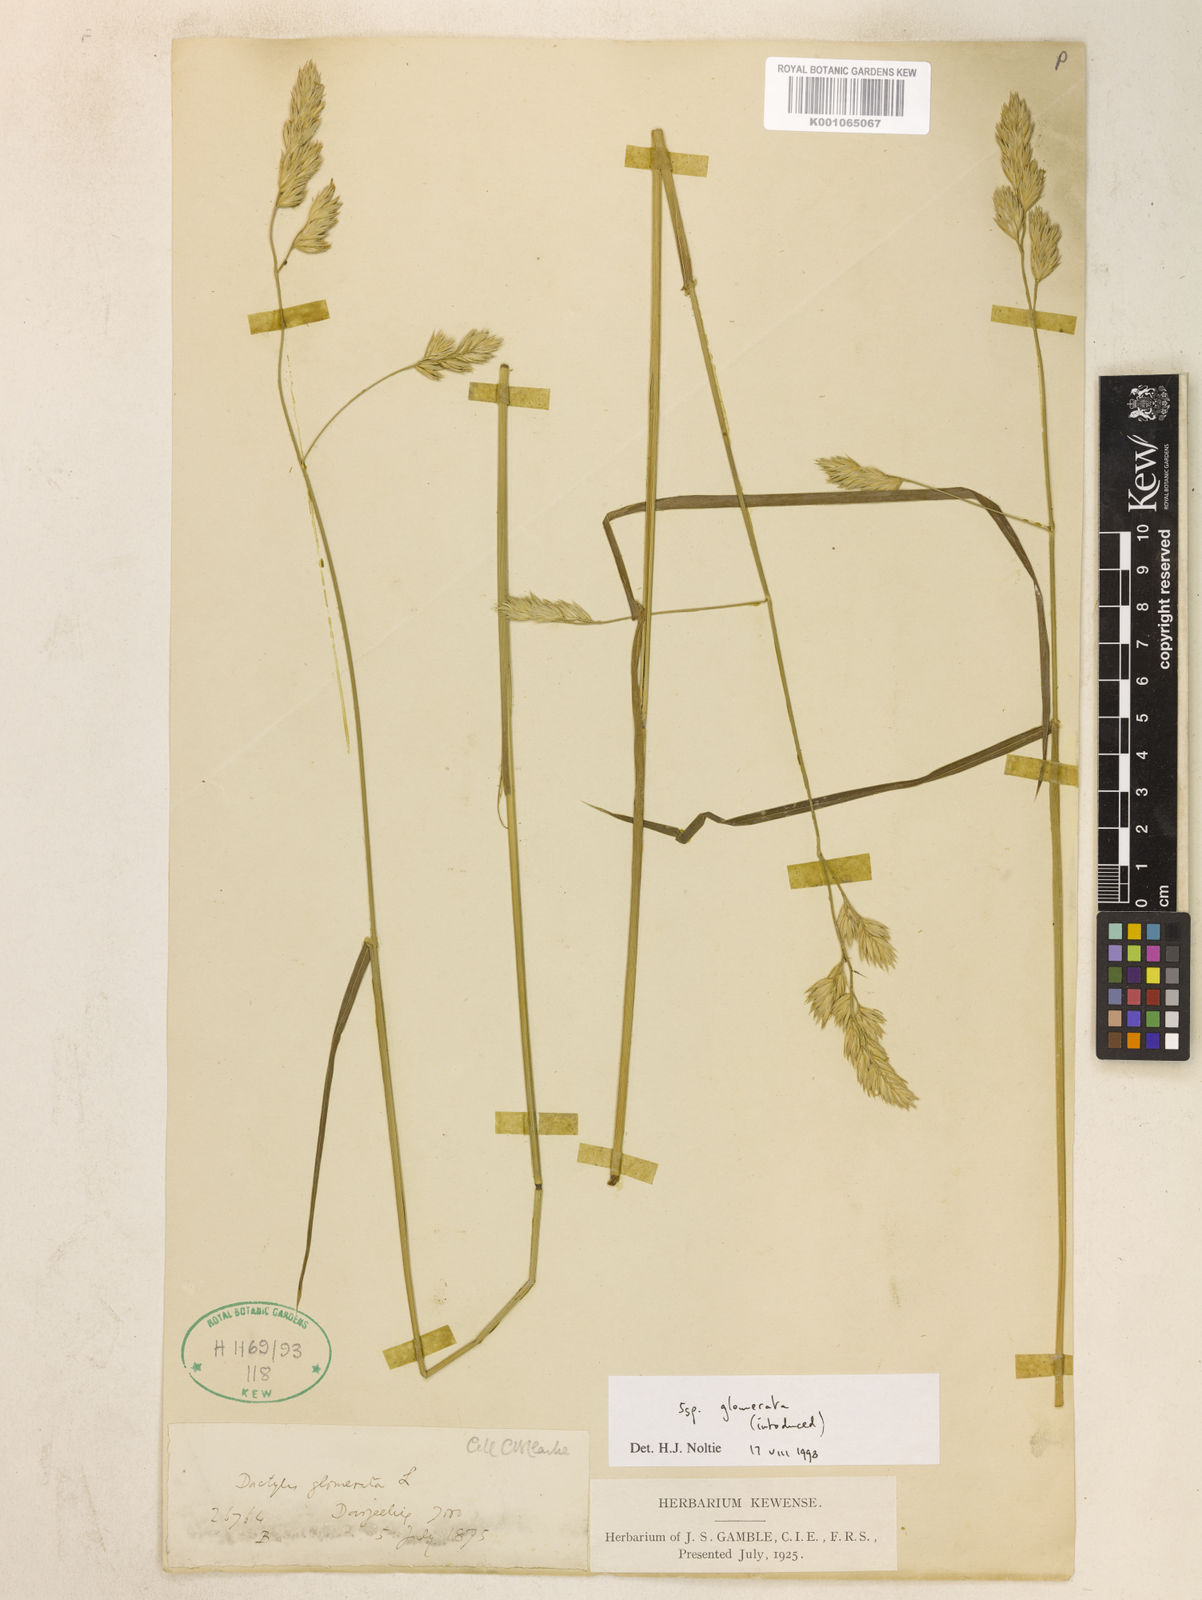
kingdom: Plantae
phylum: Tracheophyta
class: Liliopsida
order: Poales
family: Poaceae
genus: Dactylis
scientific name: Dactylis glomerata
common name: Orchardgrass
